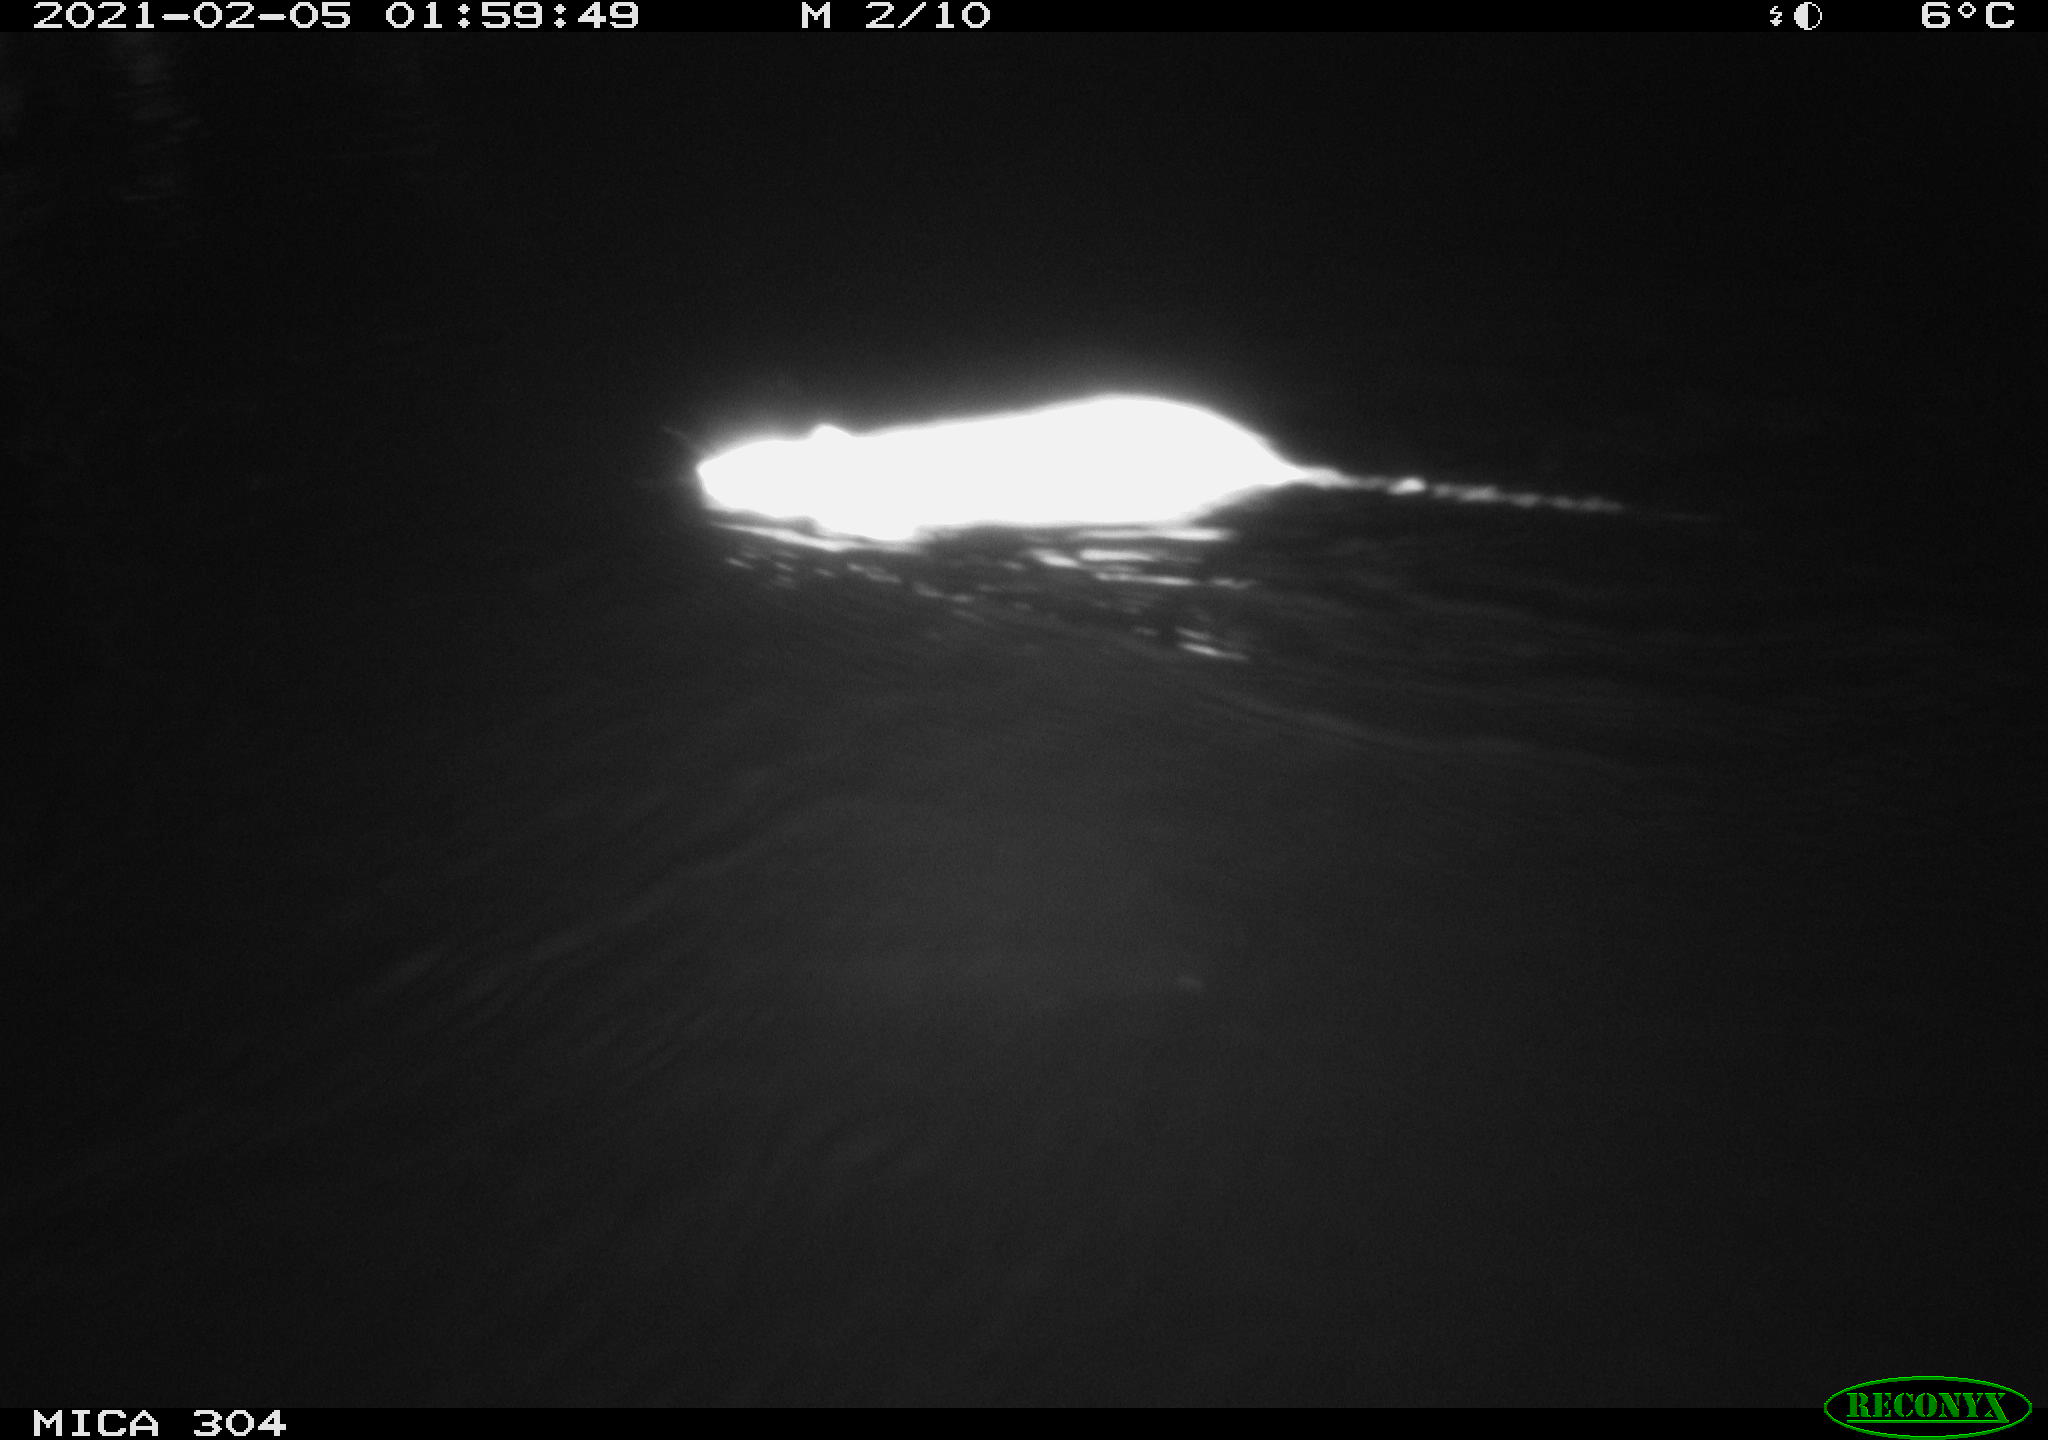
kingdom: Animalia
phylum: Chordata
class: Mammalia
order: Rodentia
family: Muridae
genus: Rattus
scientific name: Rattus norvegicus
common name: Brown rat
